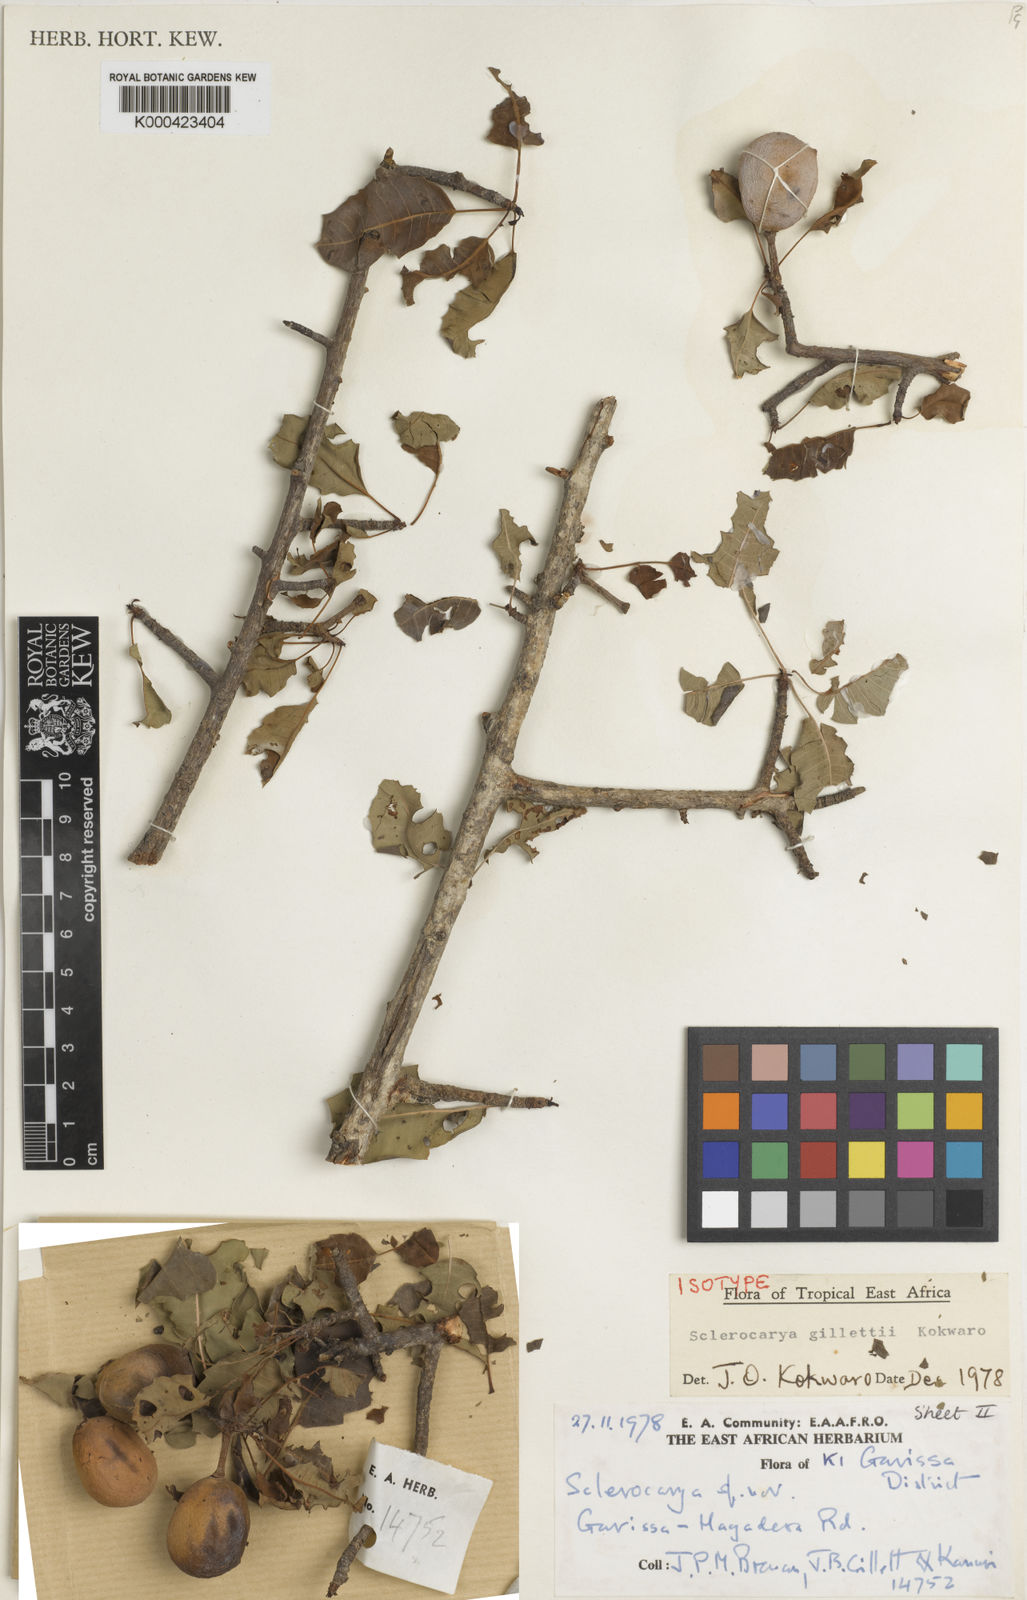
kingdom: Plantae
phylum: Tracheophyta
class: Magnoliopsida
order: Sapindales
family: Anacardiaceae
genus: Sclerocarya
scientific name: Sclerocarya gillettii
